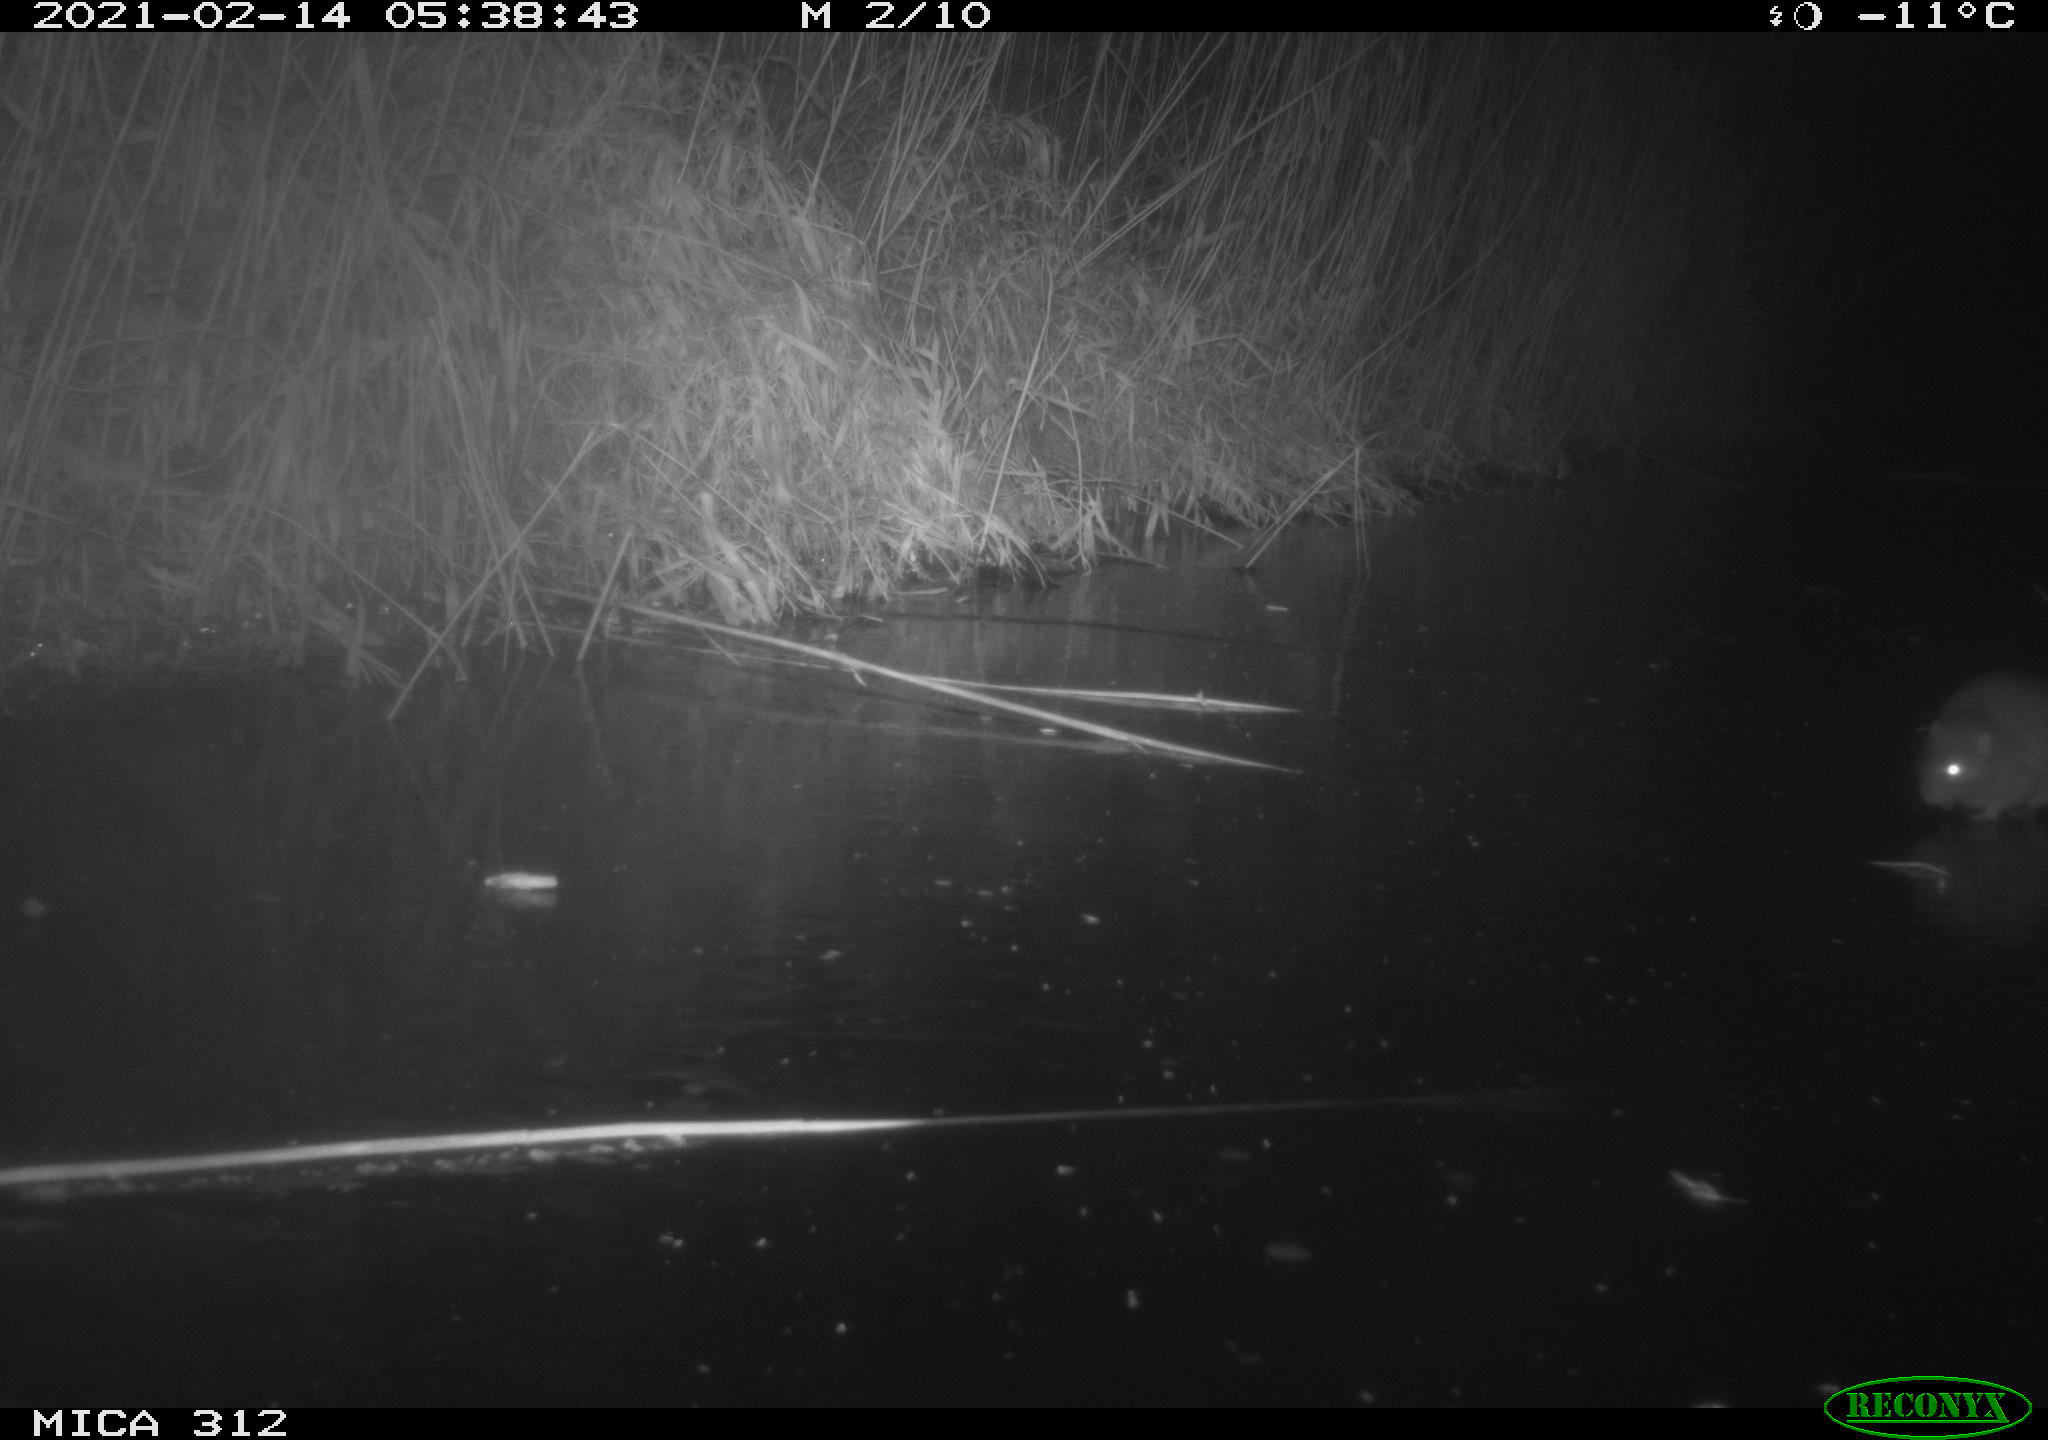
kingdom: Animalia
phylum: Chordata
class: Mammalia
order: Rodentia
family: Muridae
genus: Rattus
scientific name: Rattus norvegicus
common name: Brown rat
